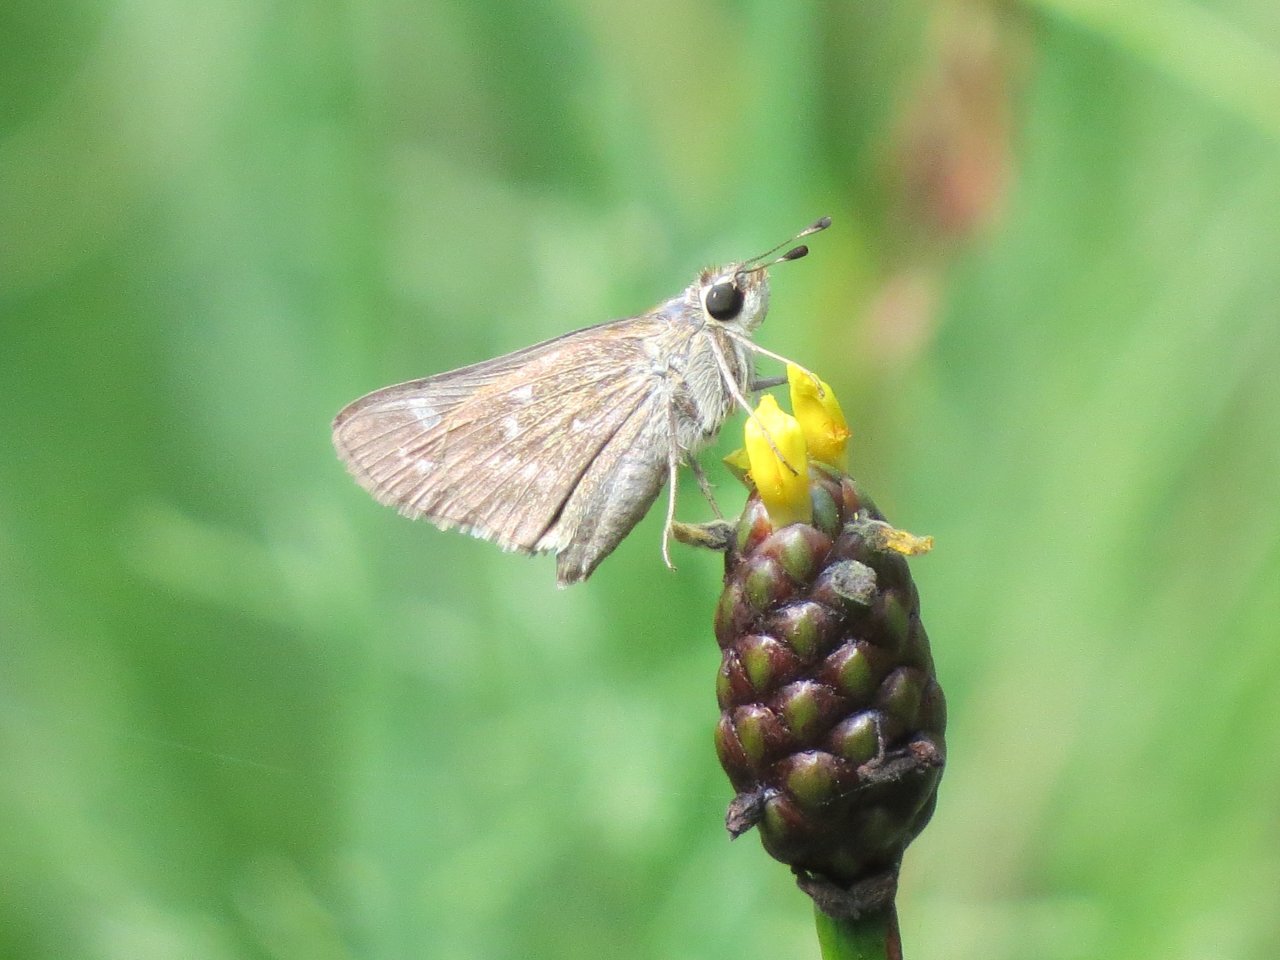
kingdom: Animalia
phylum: Arthropoda
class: Insecta
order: Lepidoptera
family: Hesperiidae
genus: Atalopedes
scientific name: Atalopedes campestris
